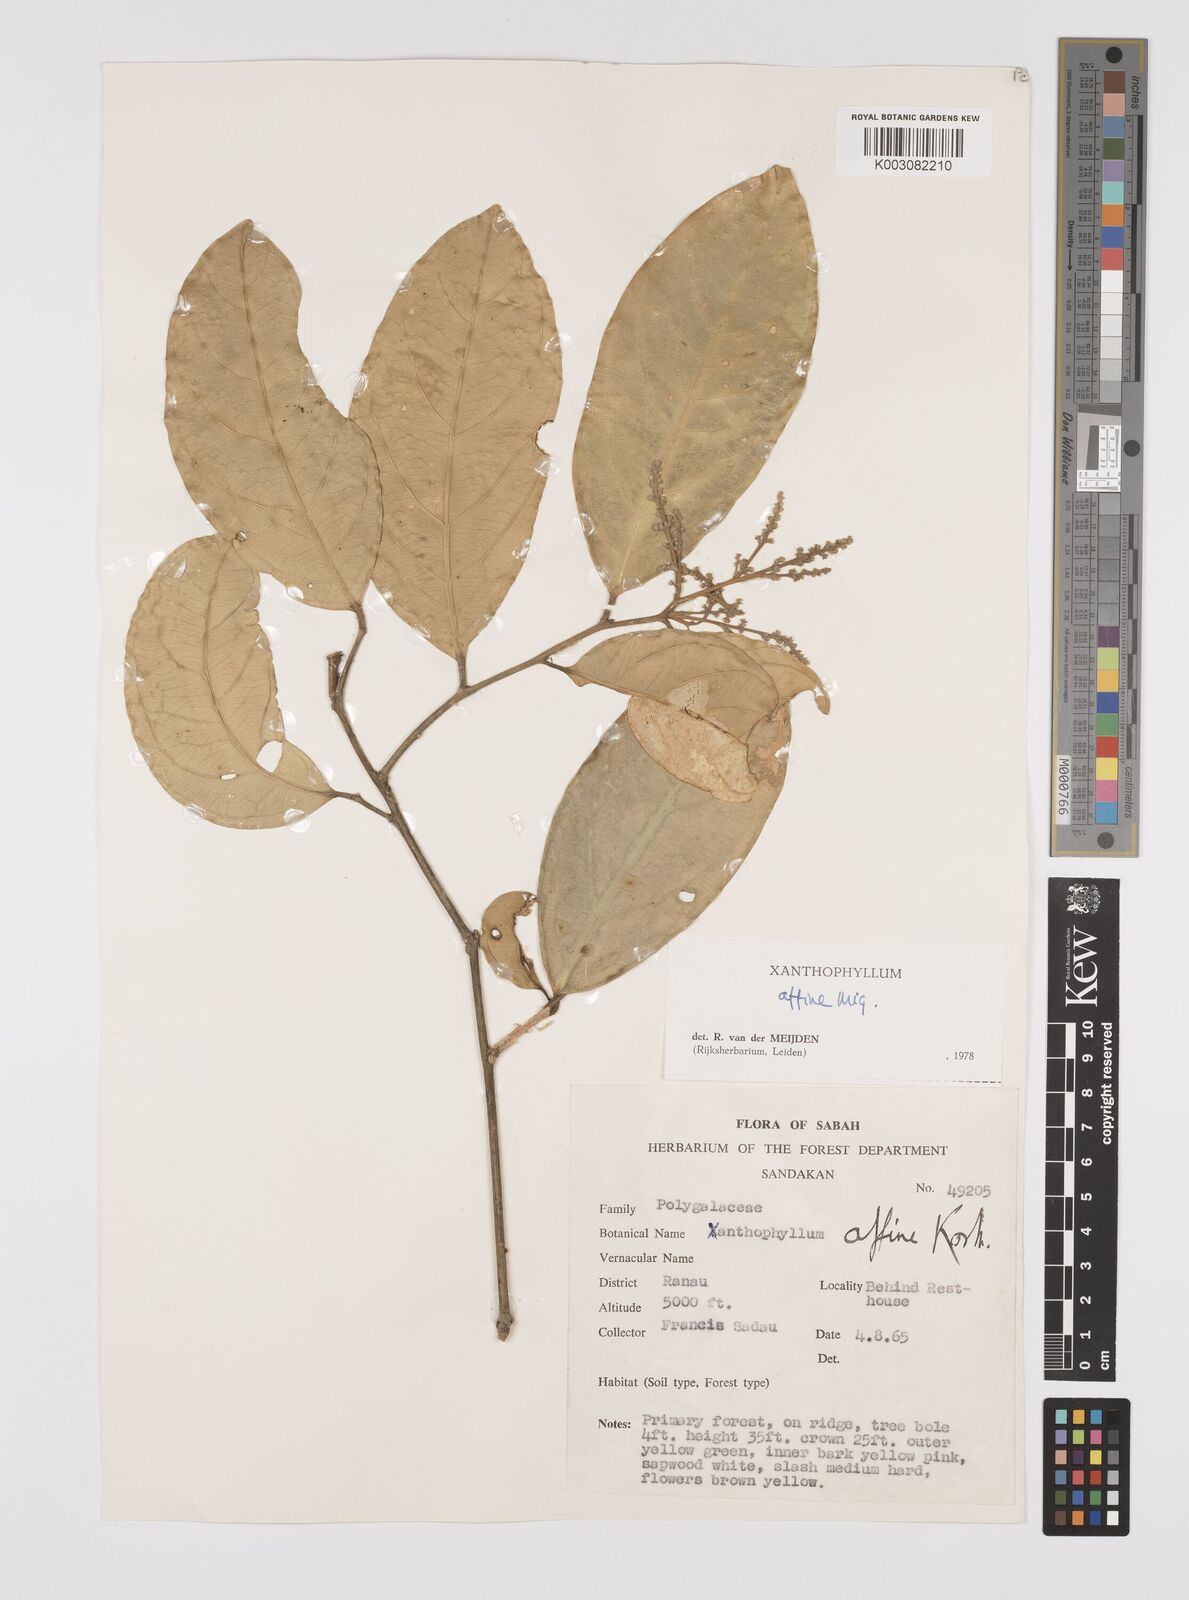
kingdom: Plantae
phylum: Tracheophyta
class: Magnoliopsida
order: Fabales
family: Polygalaceae
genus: Xanthophyllum
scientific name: Xanthophyllum flavescens
